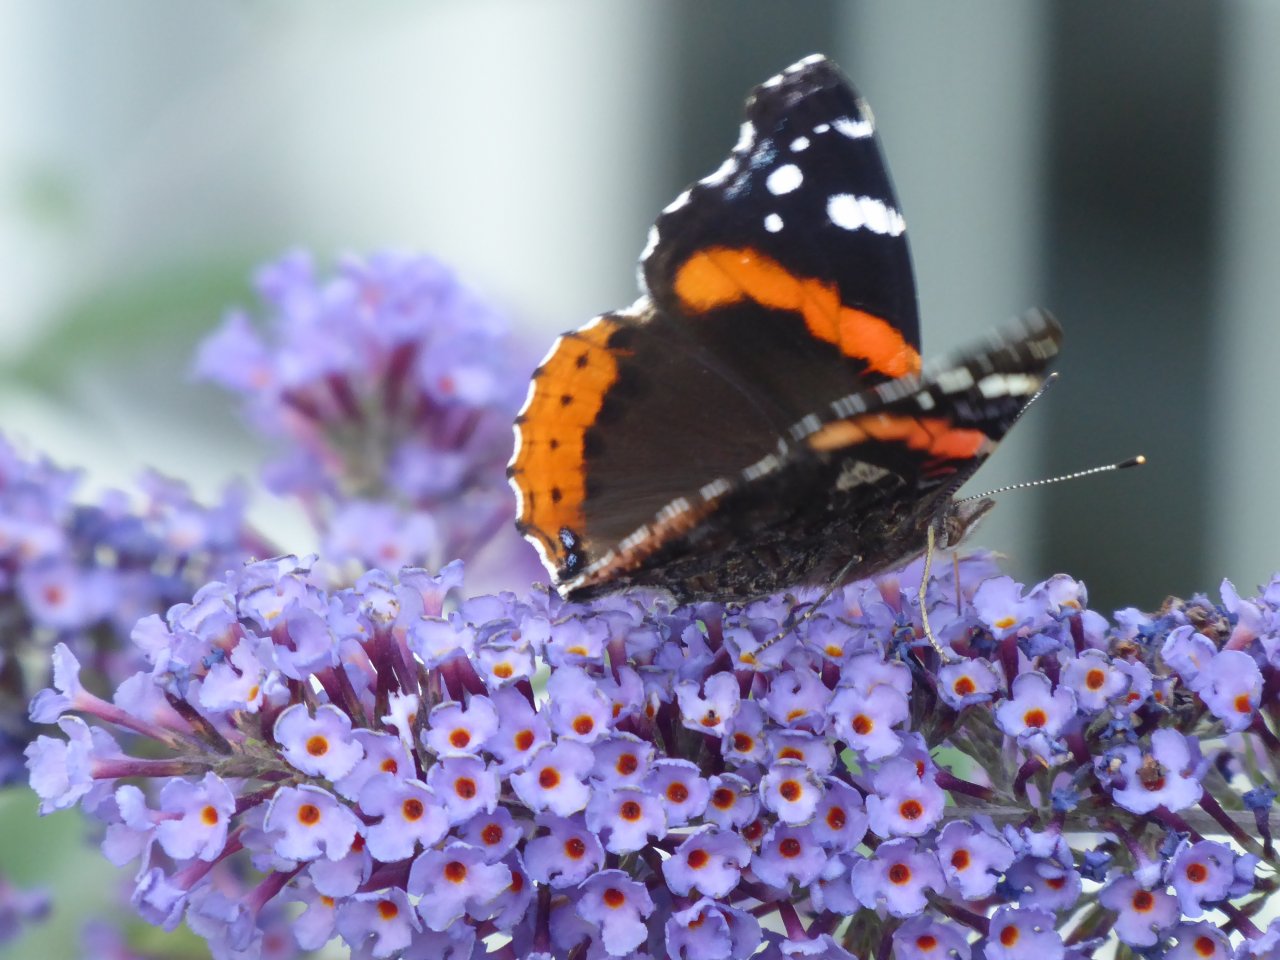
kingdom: Animalia
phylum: Arthropoda
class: Insecta
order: Lepidoptera
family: Nymphalidae
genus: Vanessa
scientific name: Vanessa atalanta
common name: Red Admiral
